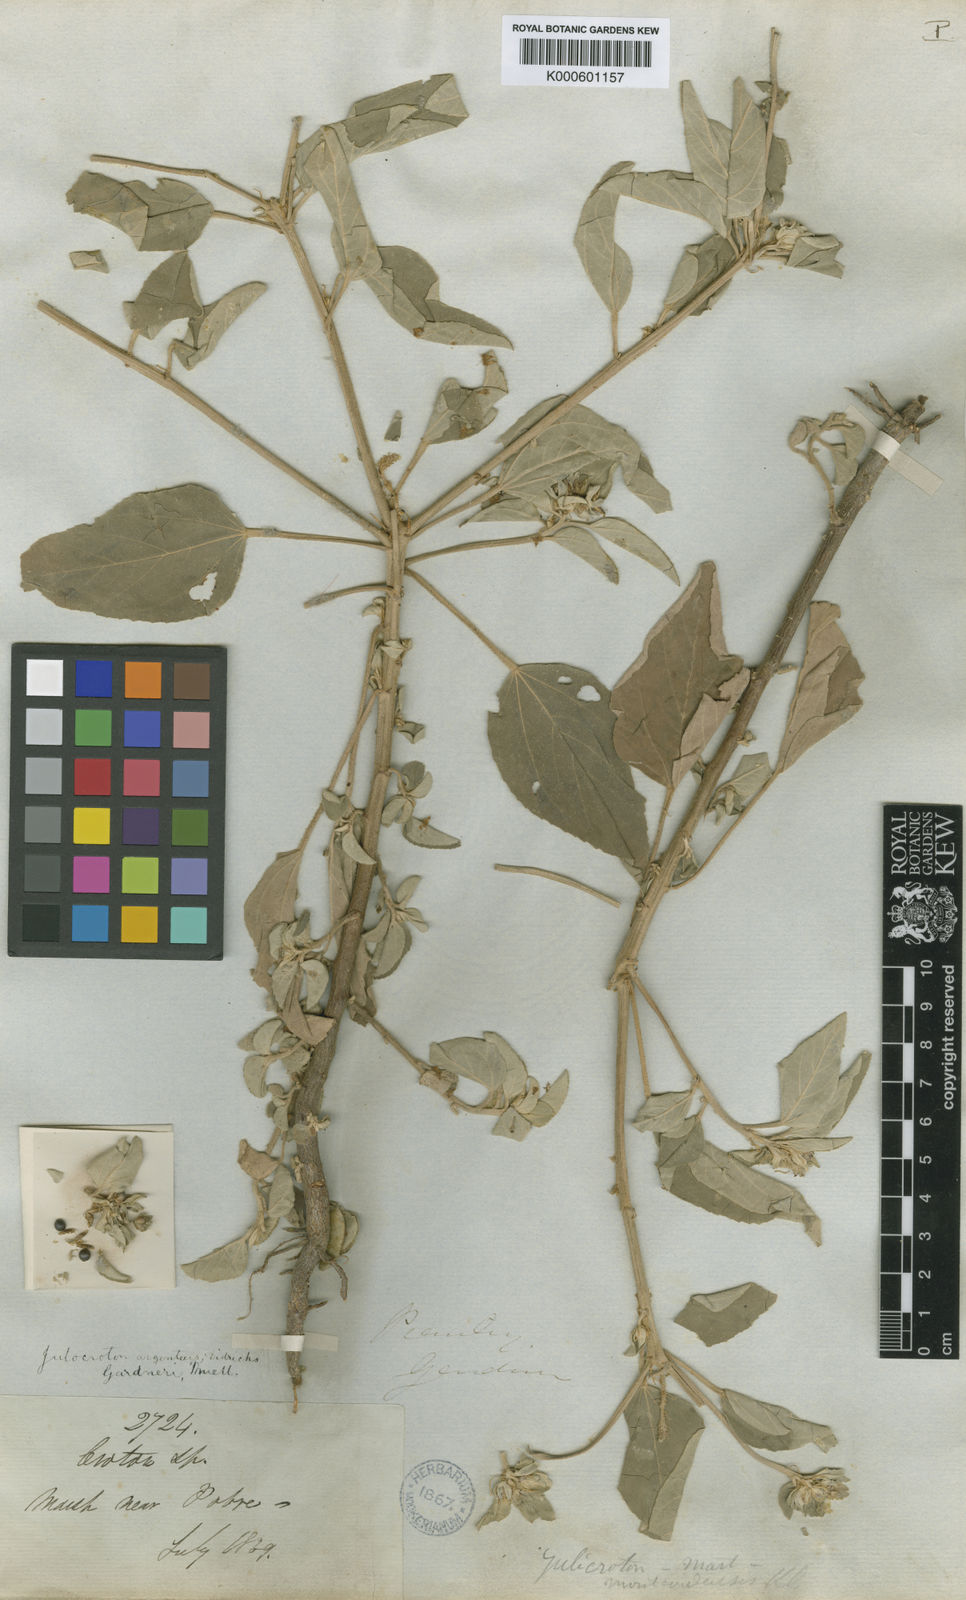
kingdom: Plantae
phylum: Tracheophyta
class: Magnoliopsida
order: Malpighiales
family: Euphorbiaceae
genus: Croton
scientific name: Croton
